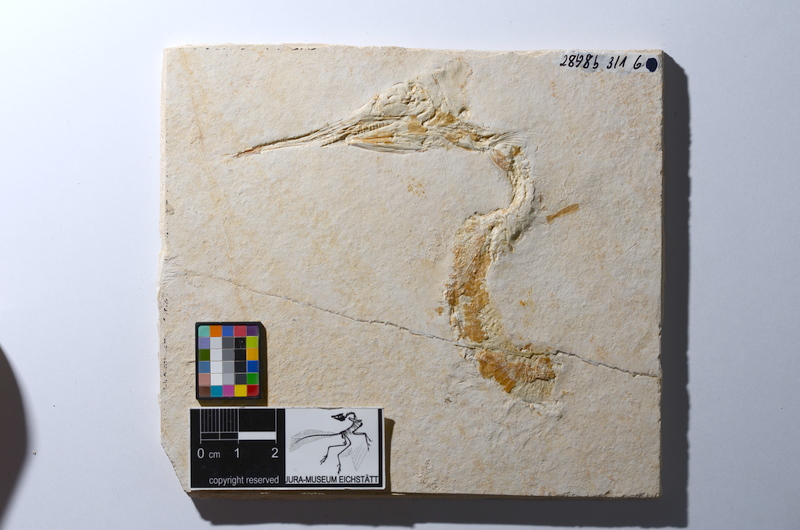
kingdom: Animalia
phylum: Chordata
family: Aspidorhynchidae
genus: Aspidorhynchus
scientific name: Aspidorhynchus acutirostris
